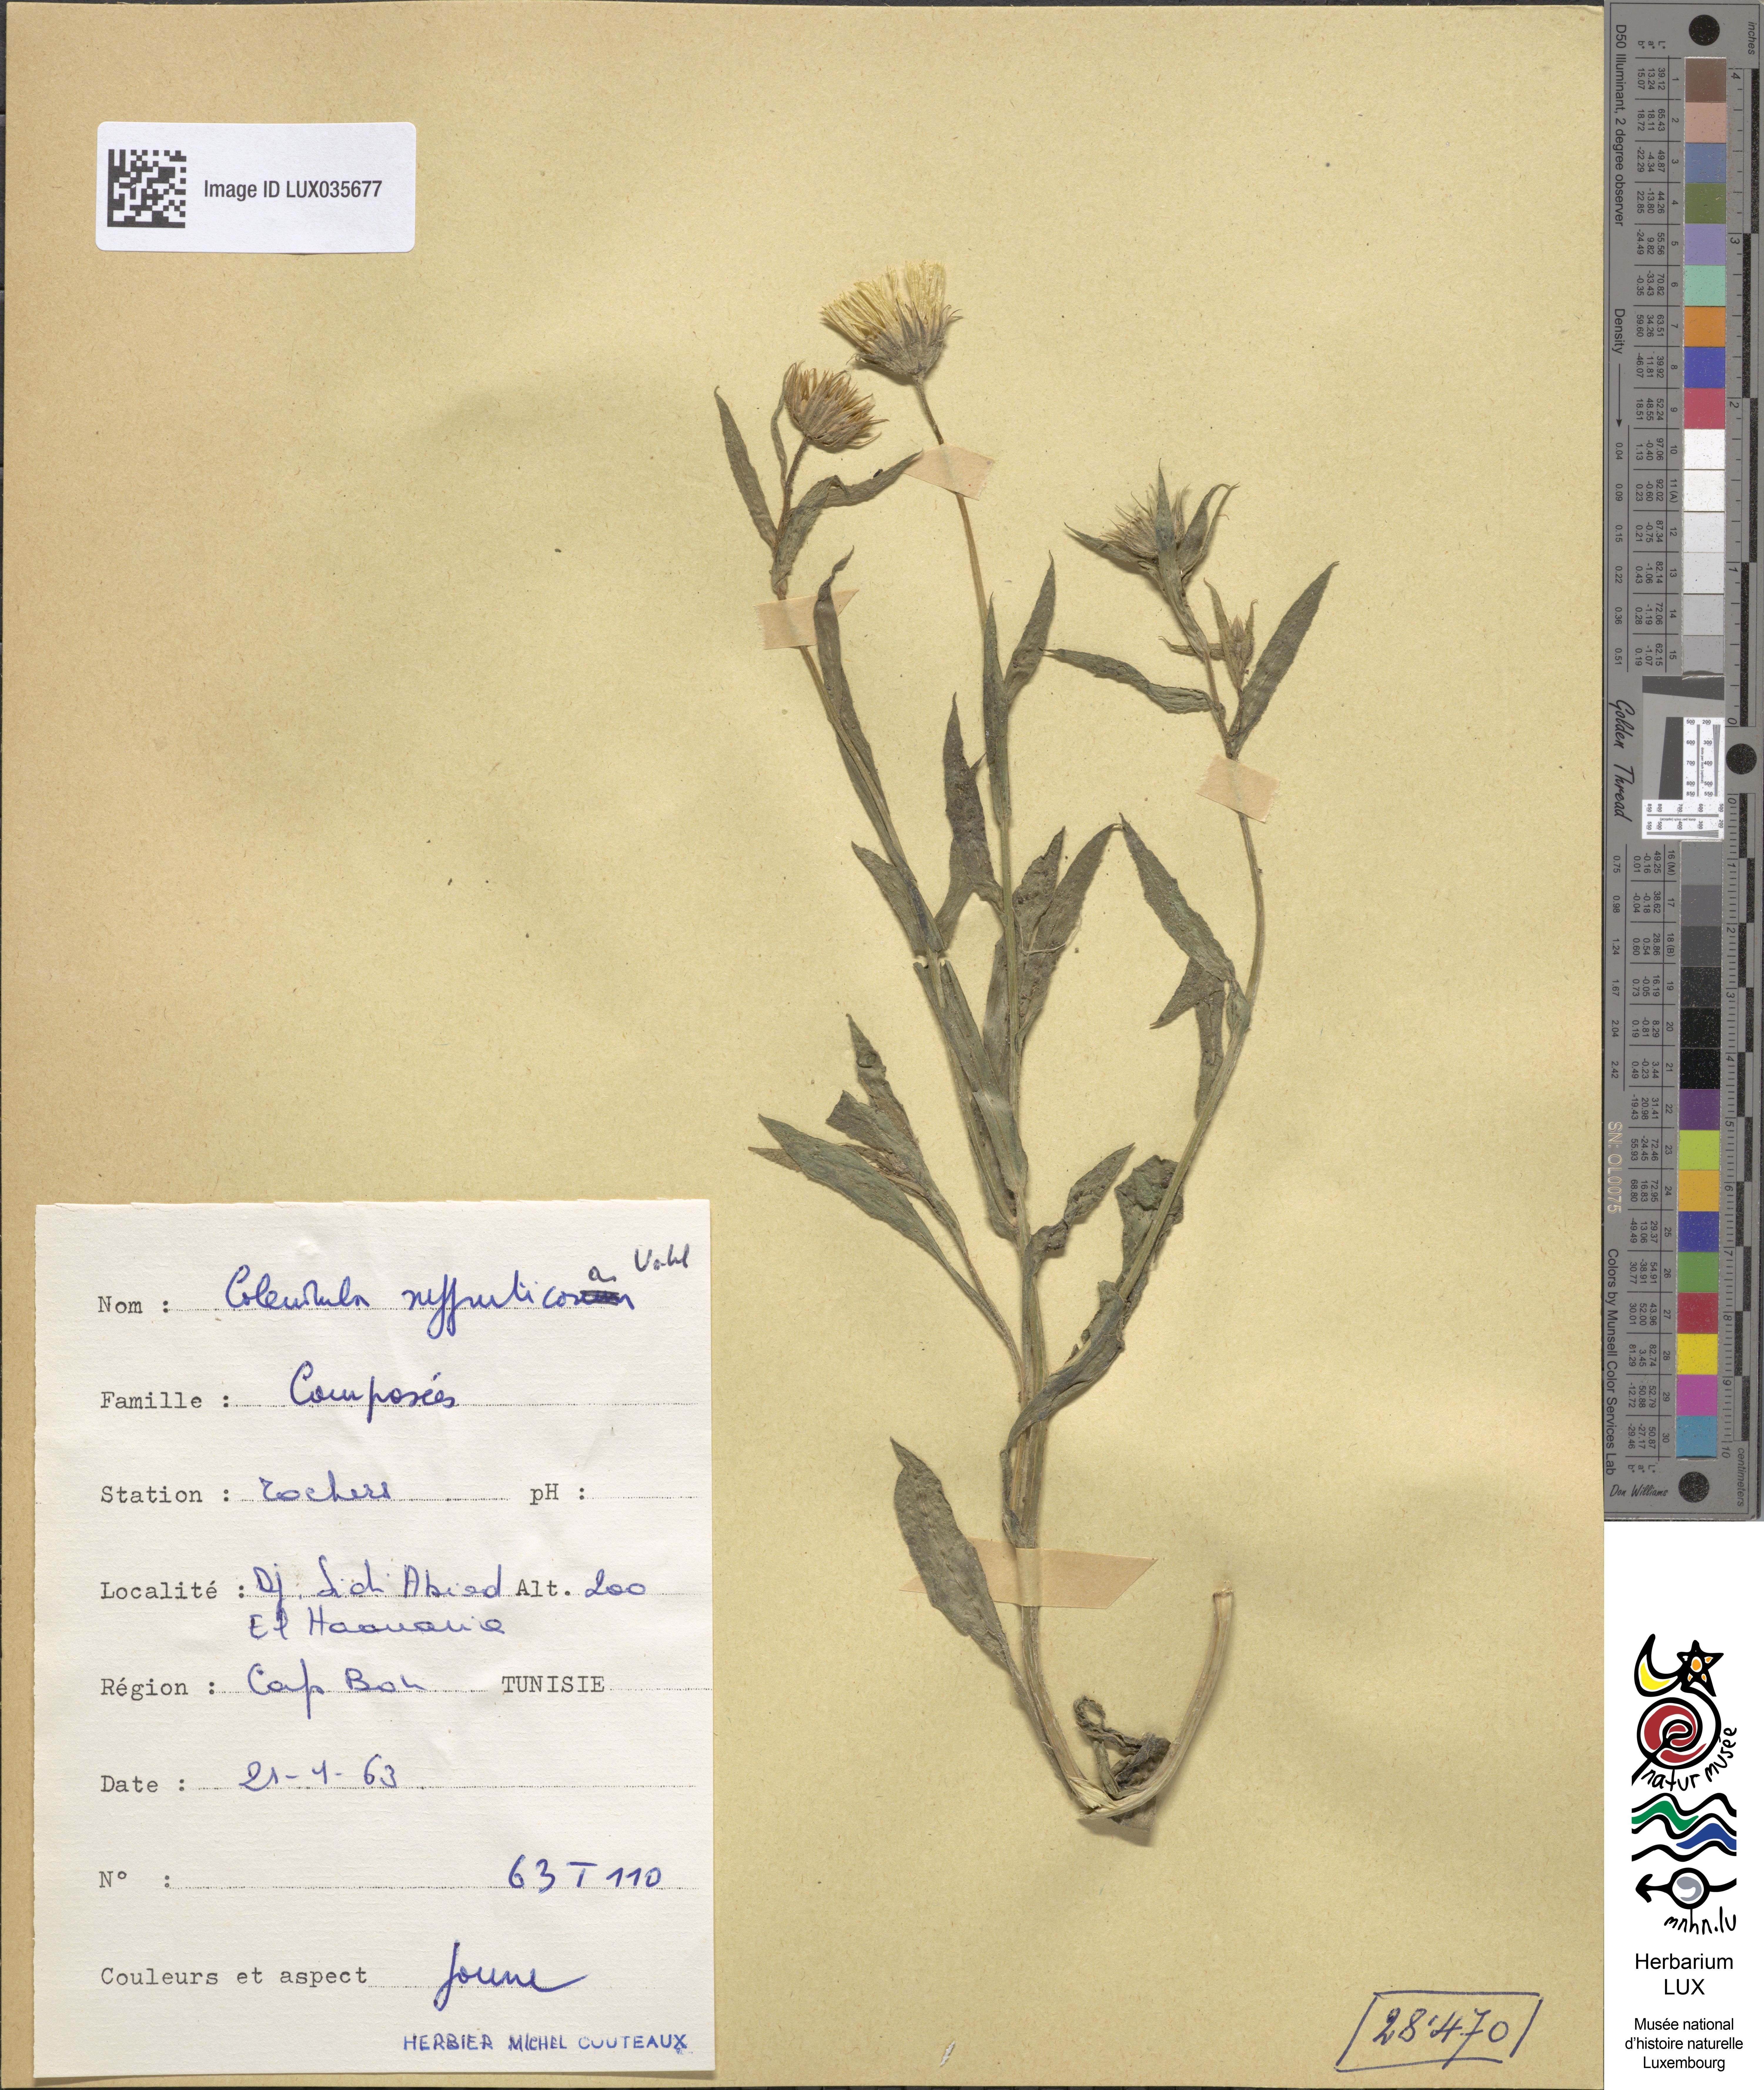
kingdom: Plantae
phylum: Tracheophyta
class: Magnoliopsida
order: Asterales
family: Asteraceae
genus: Calendula
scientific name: Calendula suffruticosa
